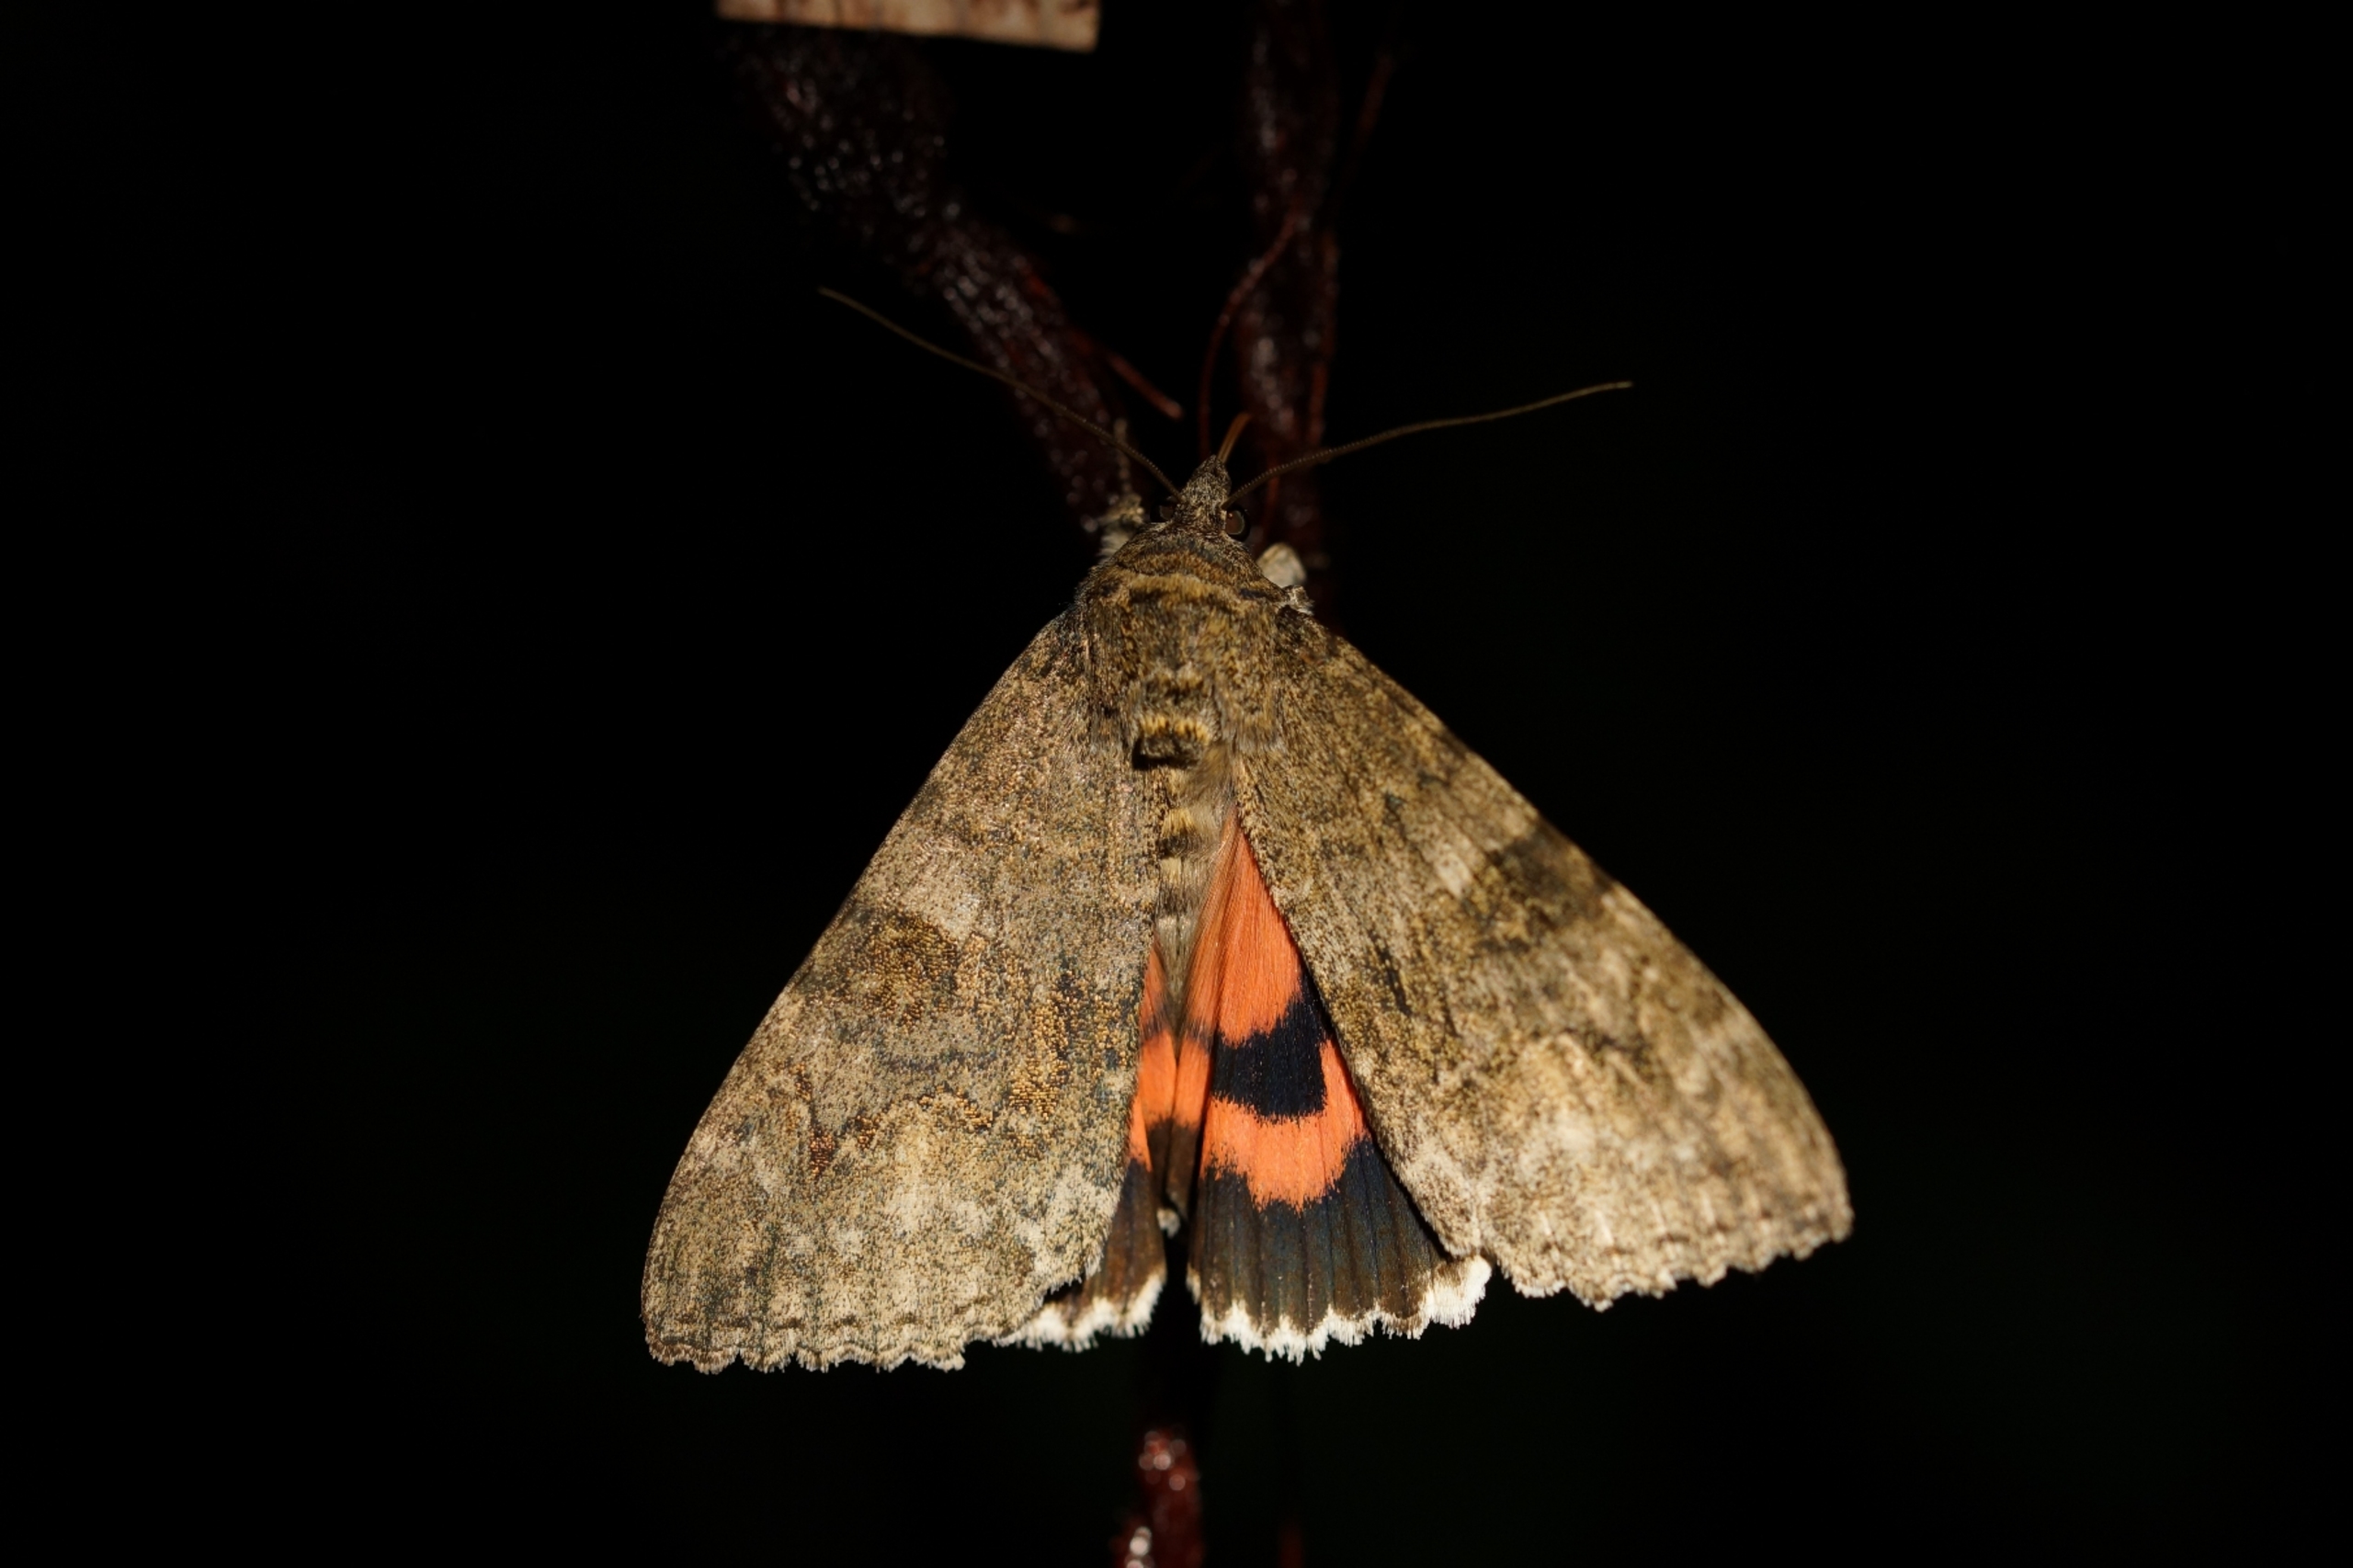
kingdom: Animalia
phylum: Arthropoda
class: Insecta
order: Lepidoptera
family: Erebidae
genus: Catocala
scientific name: Catocala nupta
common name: Rødt ordensbånd
